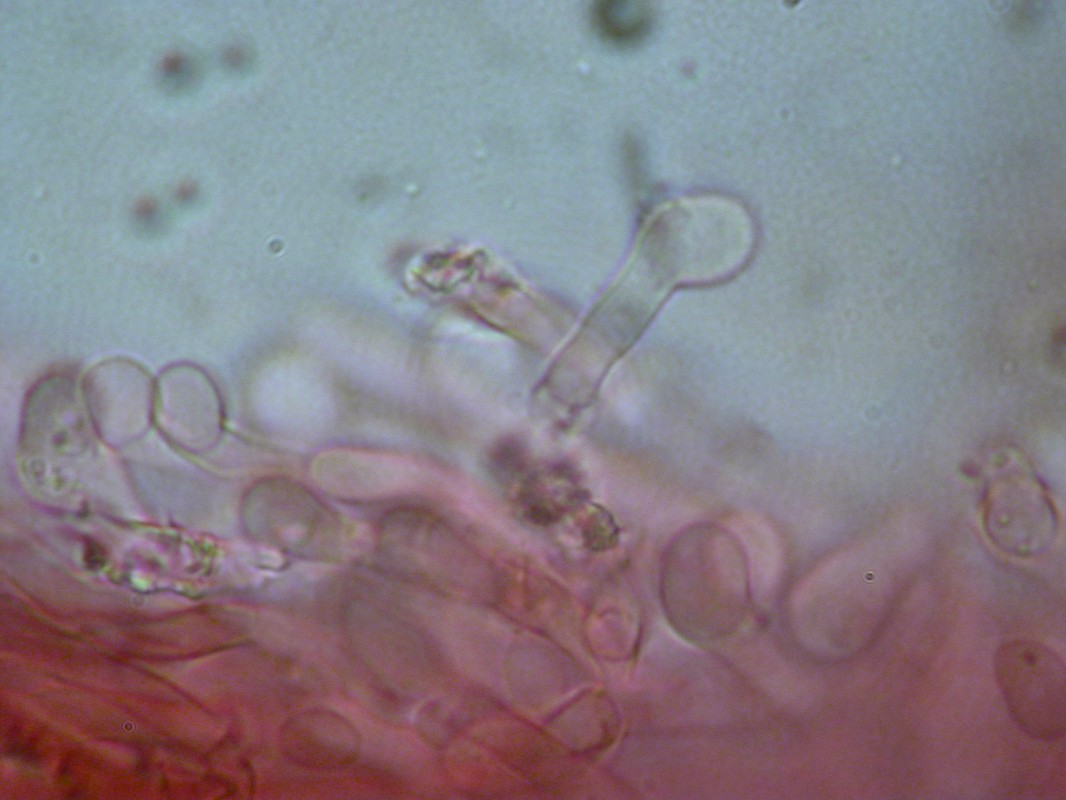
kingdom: Fungi
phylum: Basidiomycota
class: Agaricomycetes
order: Hymenochaetales
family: Schizoporaceae
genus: Xylodon
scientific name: Xylodon subtropicus
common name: labyrint-tandsvamp
